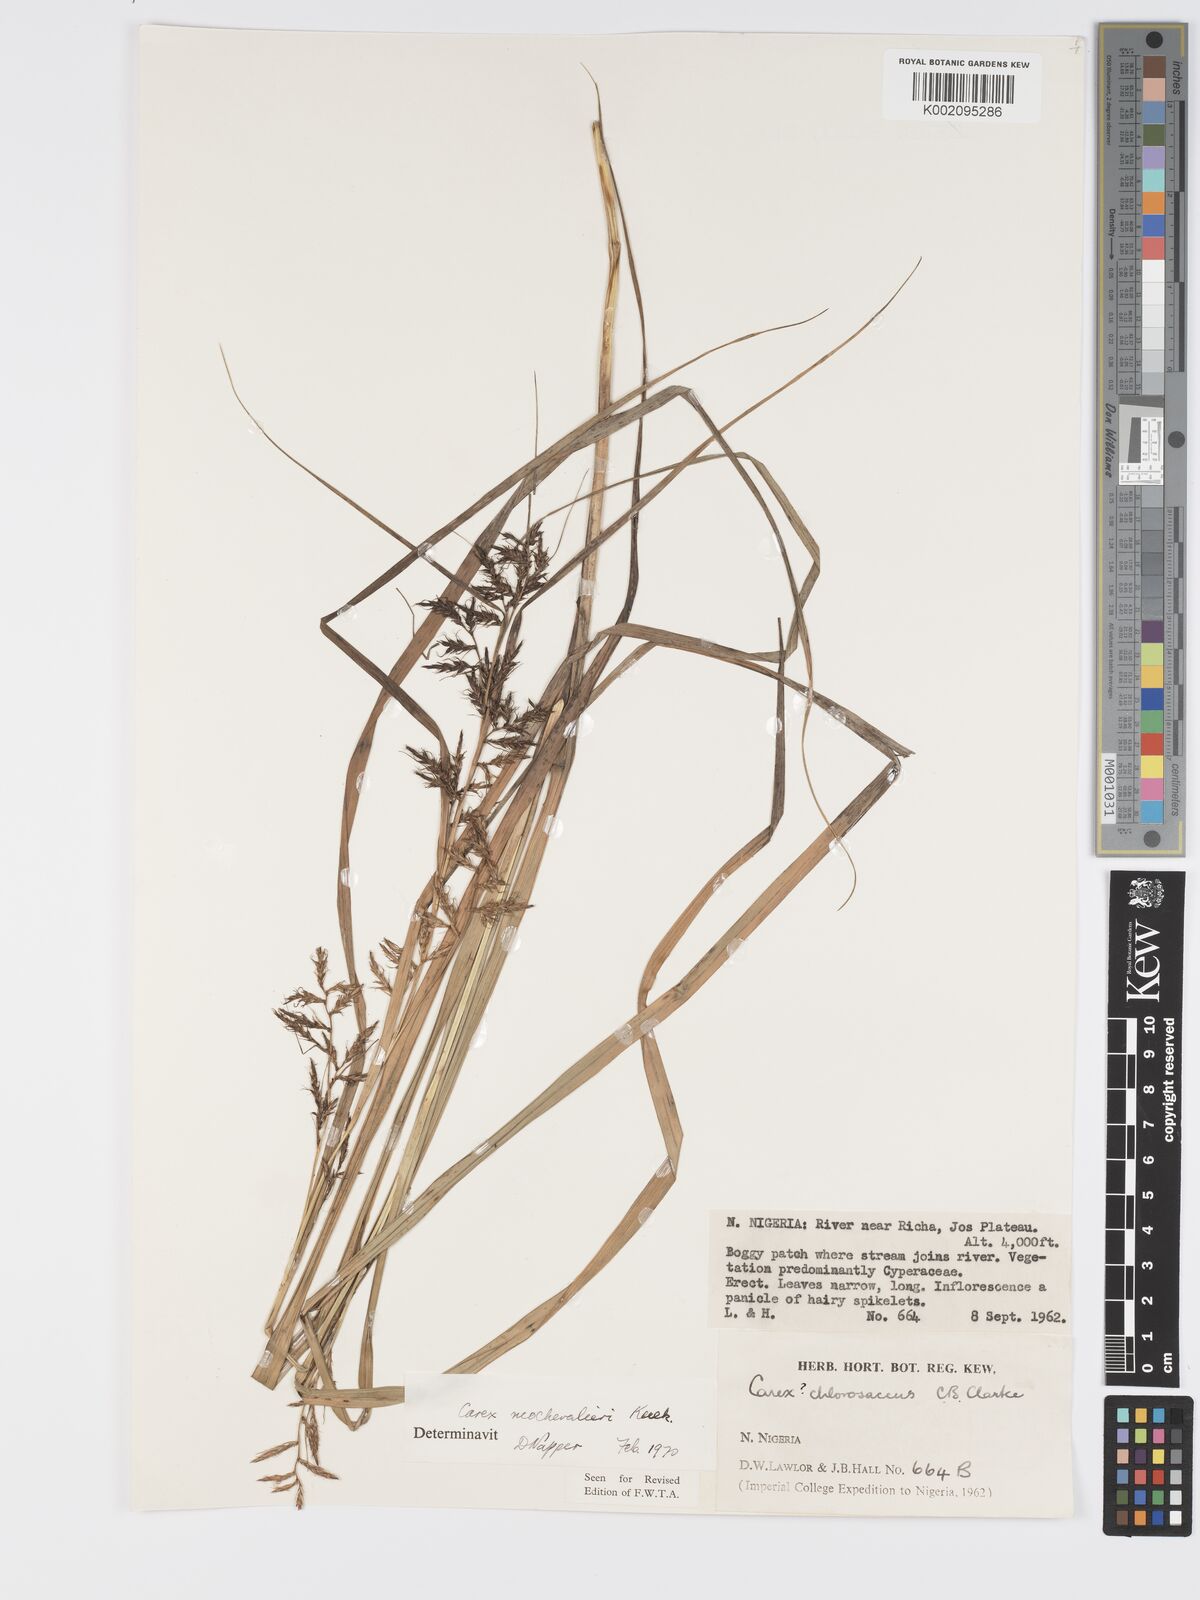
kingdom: Plantae
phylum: Tracheophyta
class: Liliopsida
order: Poales
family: Cyperaceae
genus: Carex
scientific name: Carex neochevalieri
